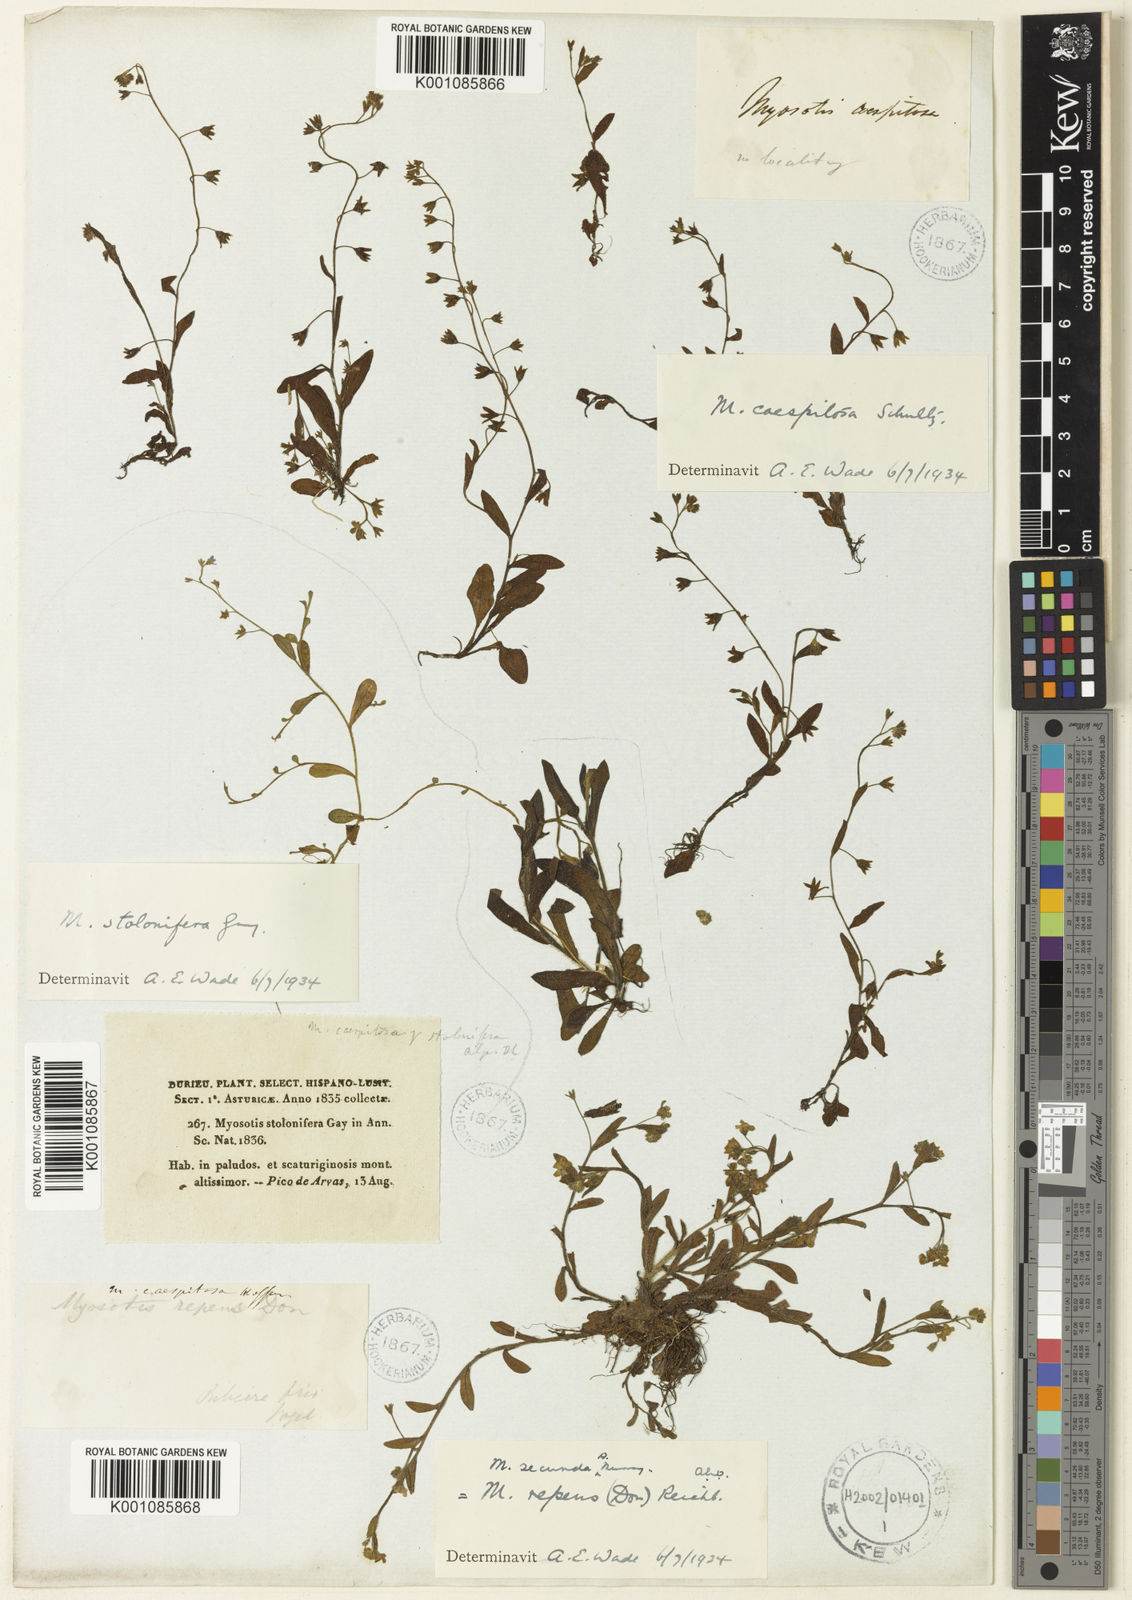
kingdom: Plantae
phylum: Tracheophyta
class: Magnoliopsida
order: Boraginales
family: Boraginaceae
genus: Myosotis
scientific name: Myosotis
